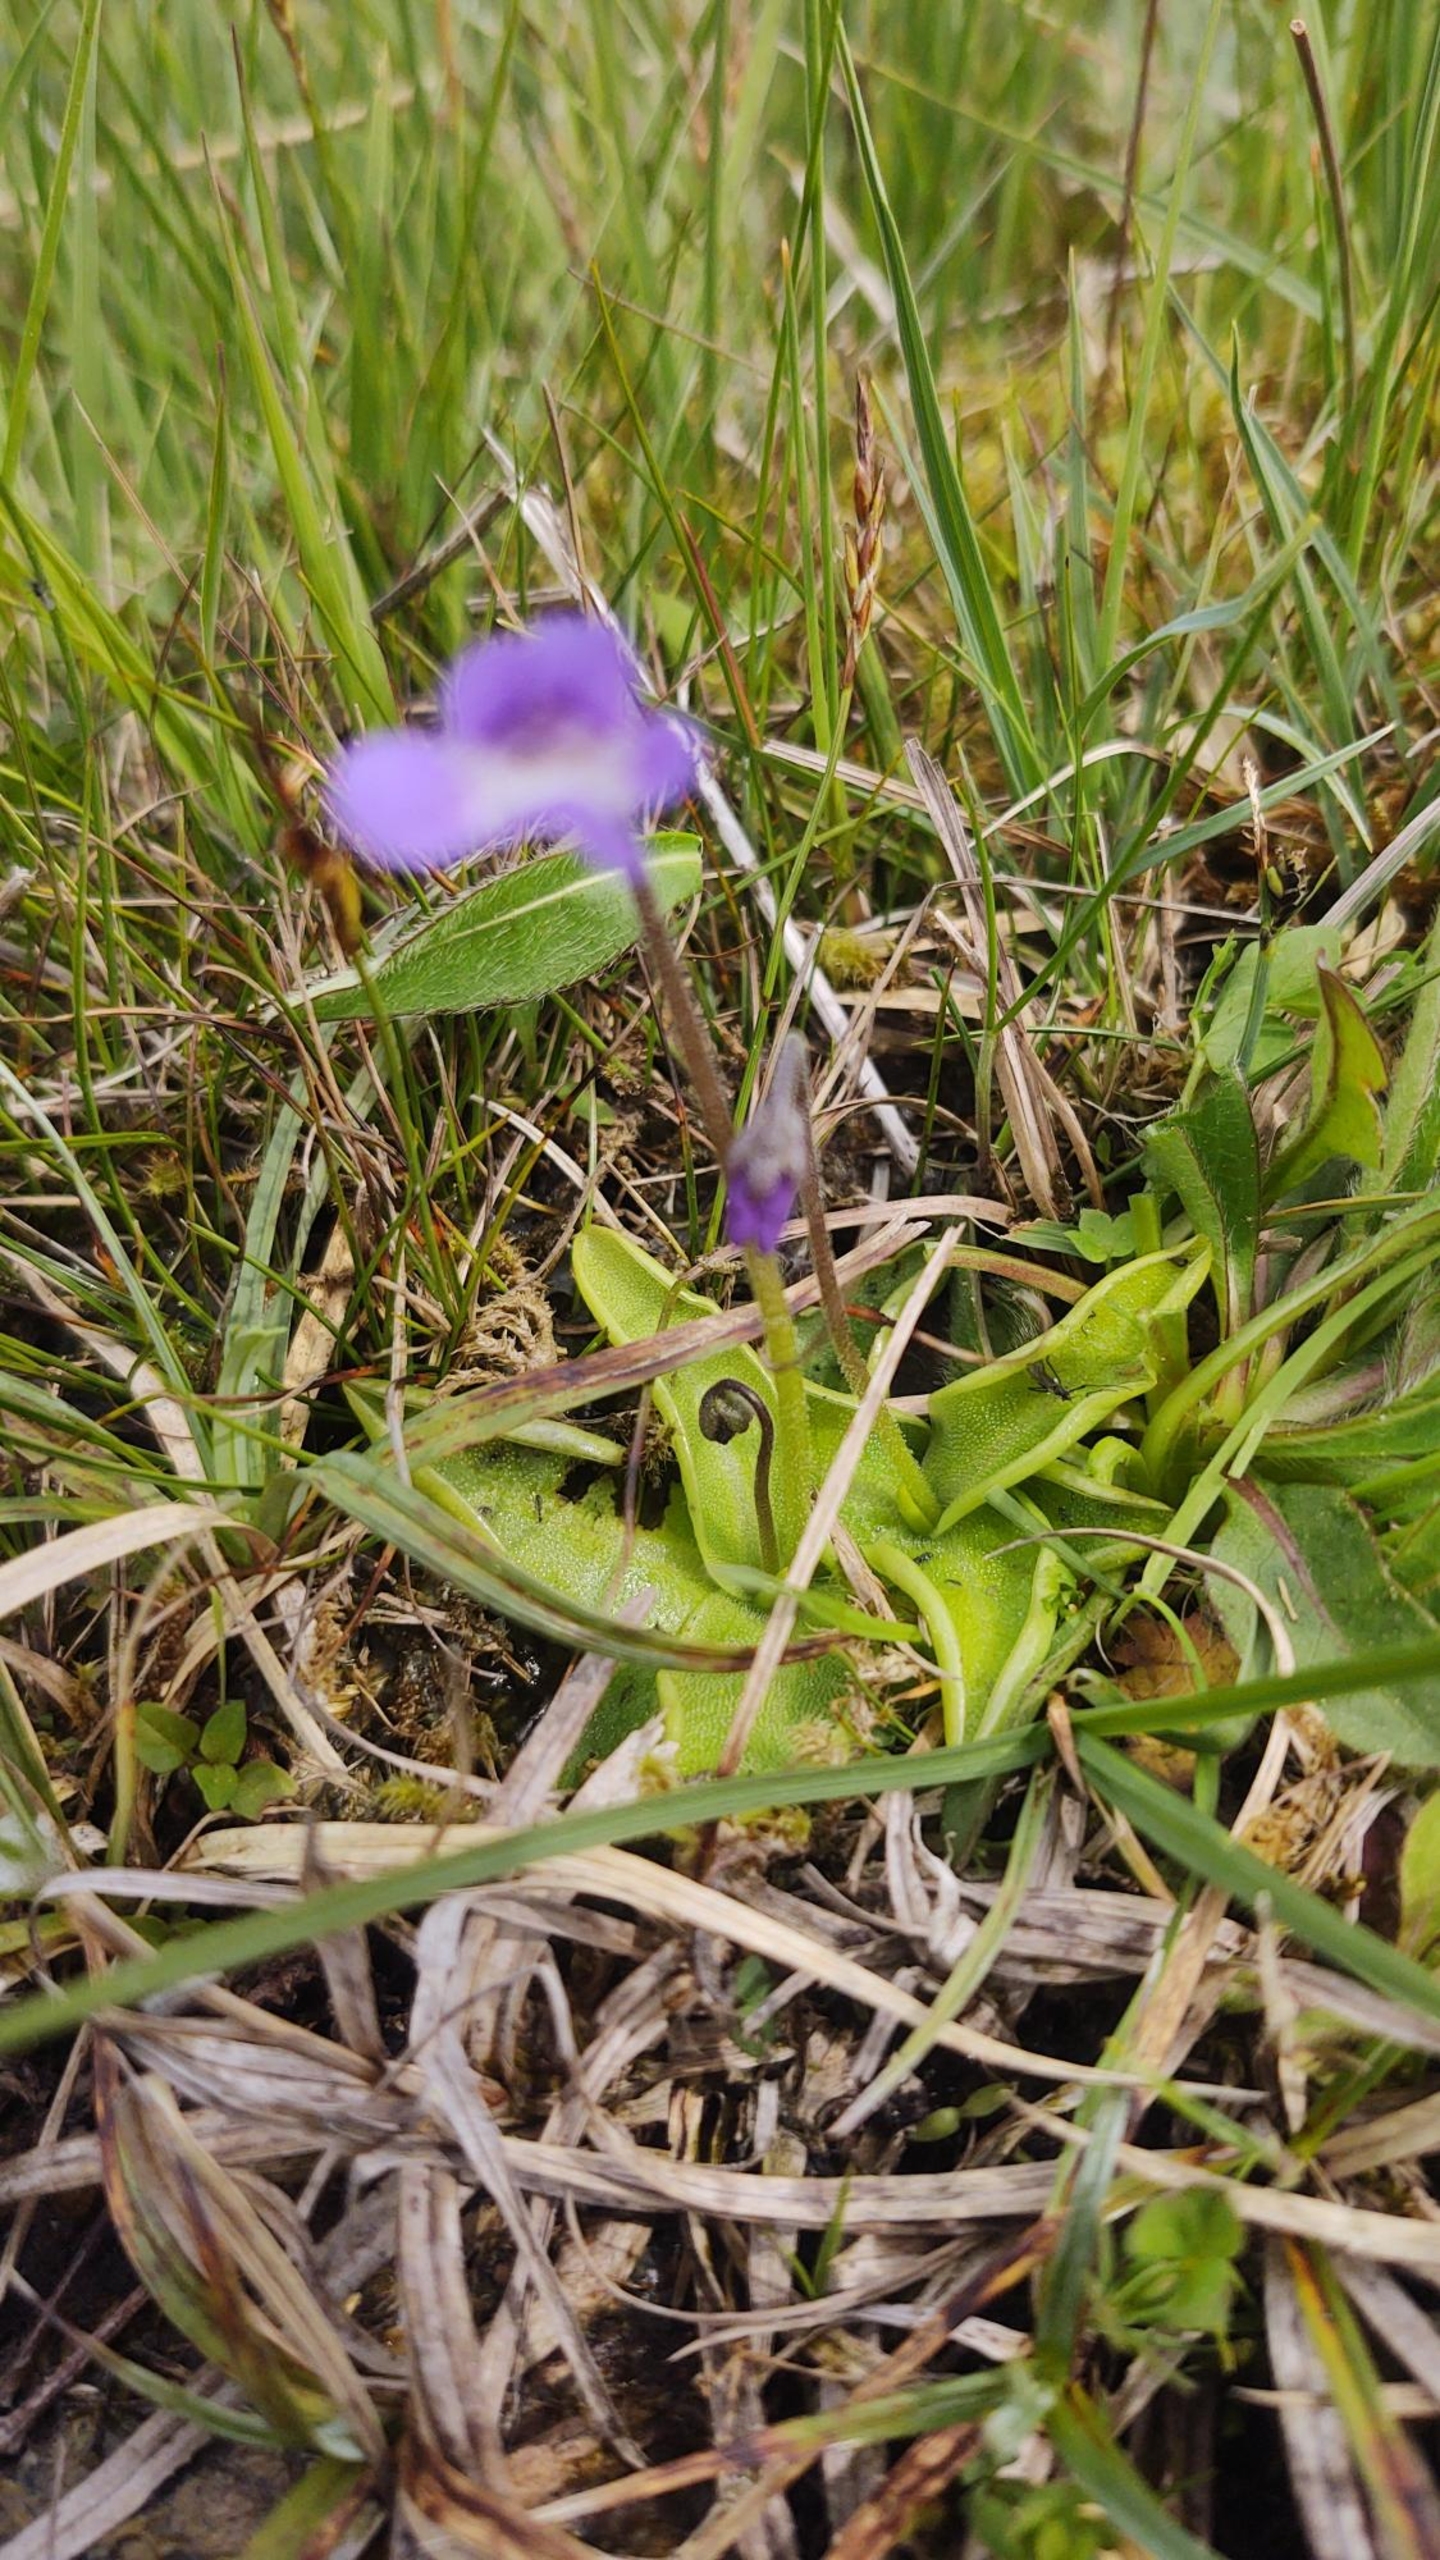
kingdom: Plantae
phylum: Tracheophyta
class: Magnoliopsida
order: Lamiales
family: Lentibulariaceae
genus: Pinguicula
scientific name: Pinguicula vulgaris
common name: Vibefedt
